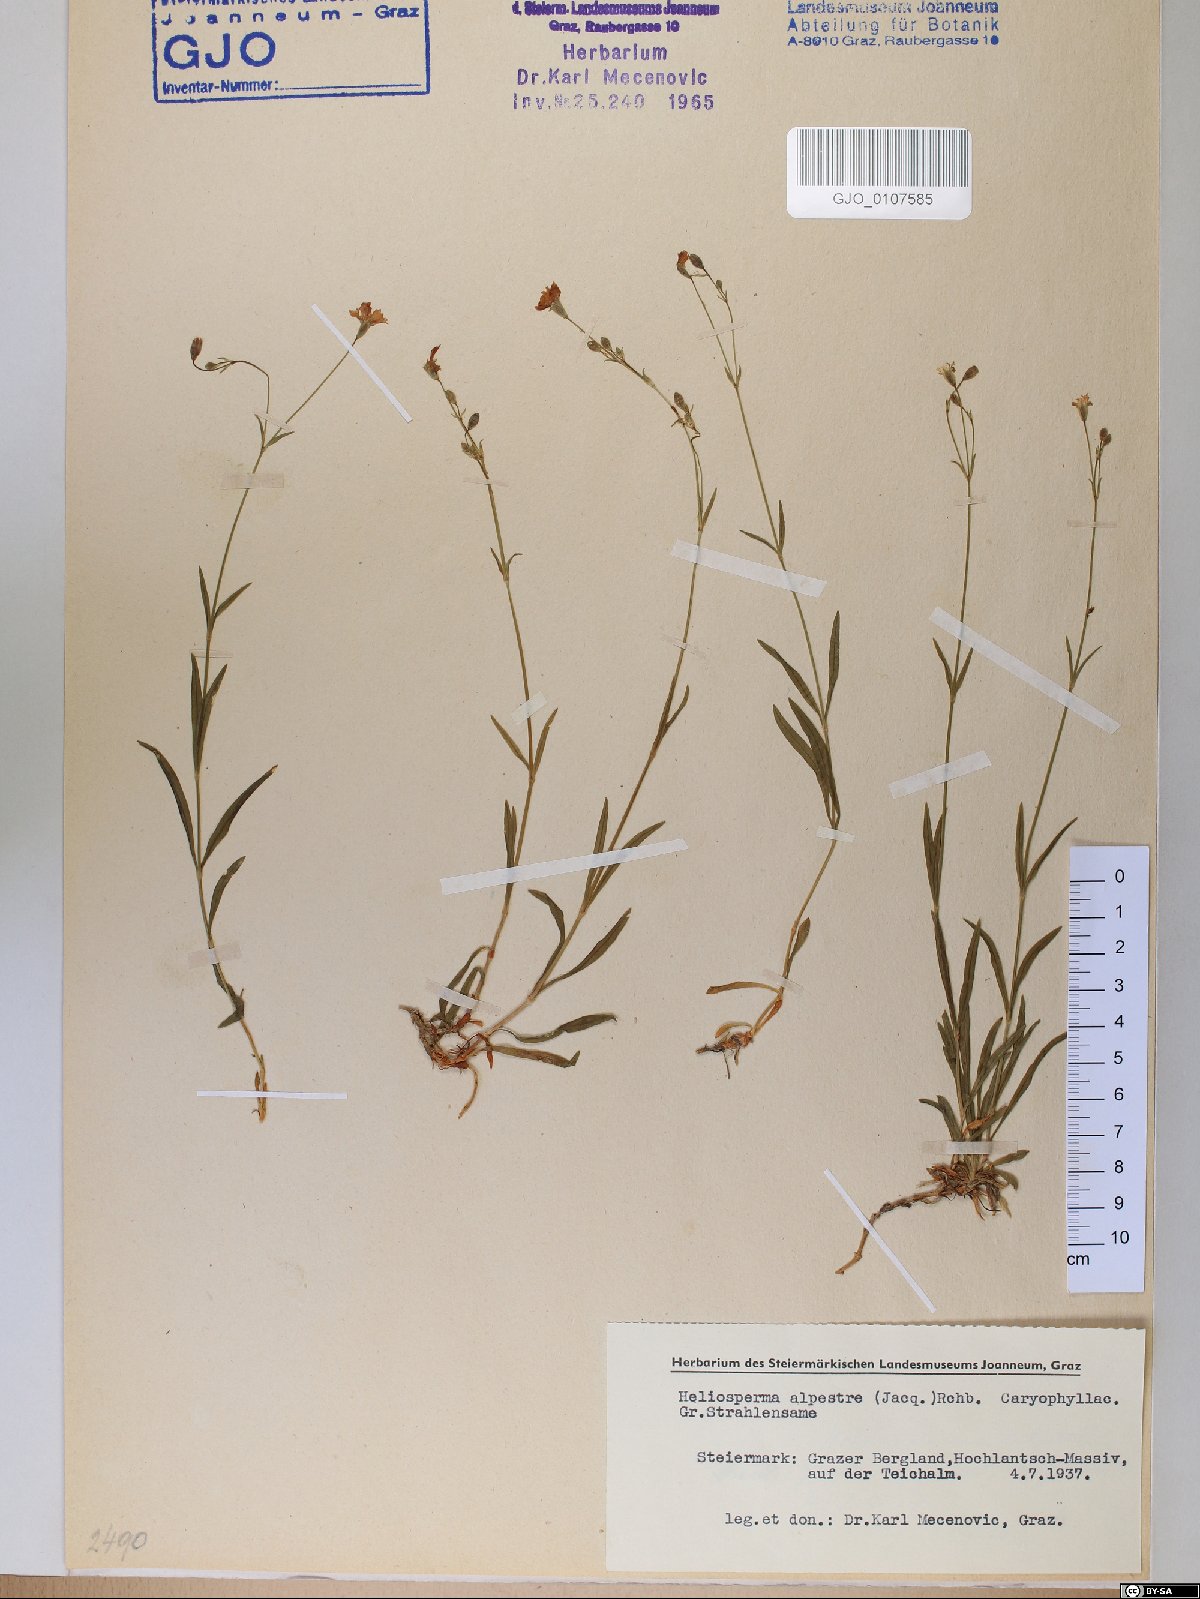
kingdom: Plantae
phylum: Tracheophyta
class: Magnoliopsida
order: Caryophyllales
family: Caryophyllaceae
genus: Heliosperma
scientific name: Heliosperma alpestre
